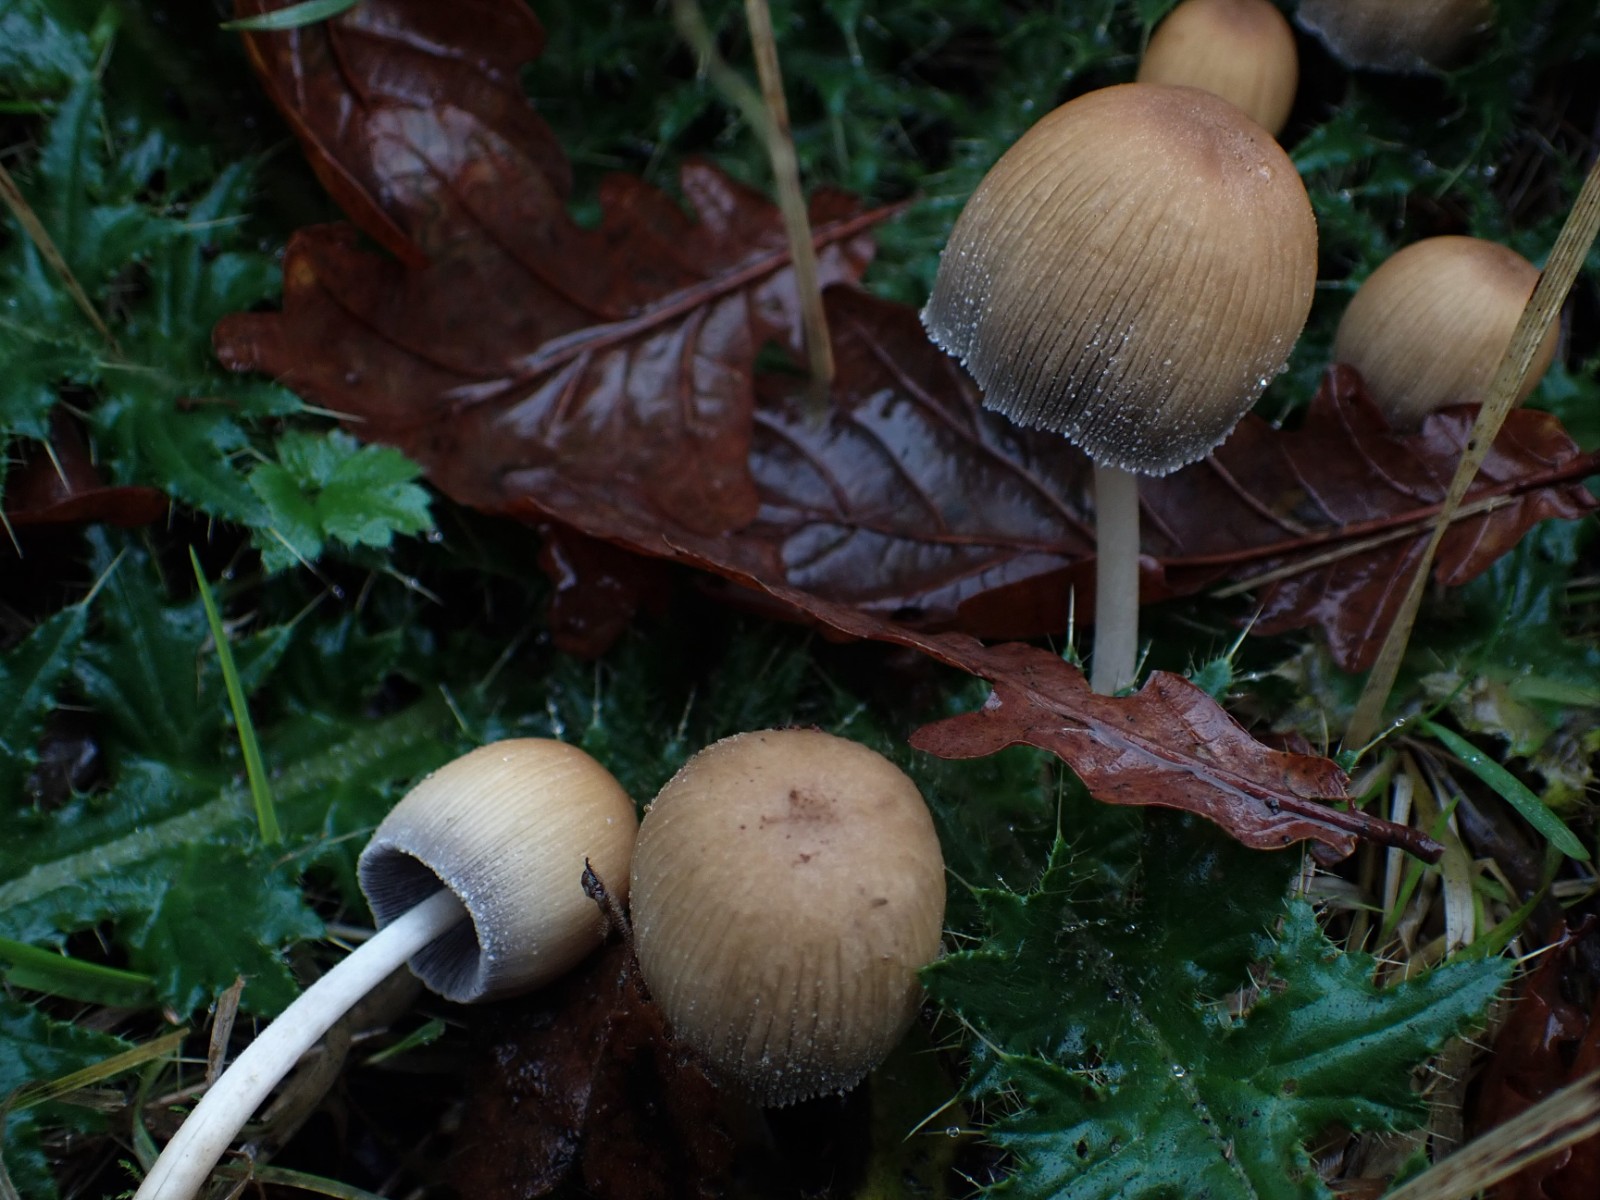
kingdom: Fungi
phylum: Basidiomycota
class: Agaricomycetes
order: Agaricales
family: Psathyrellaceae
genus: Coprinellus
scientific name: Coprinellus micaceus
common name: glimmer-blækhat
